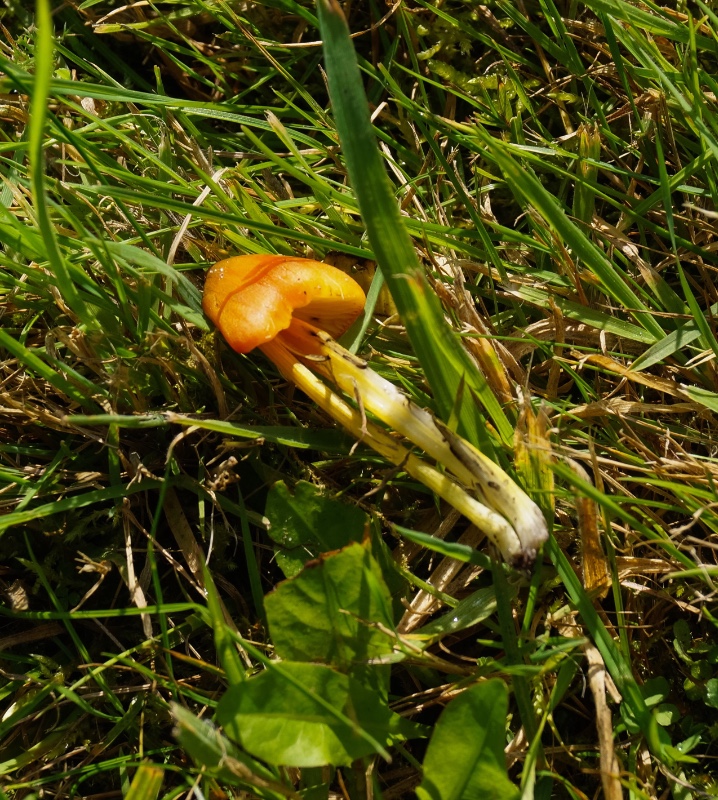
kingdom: Fungi
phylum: Basidiomycota
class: Agaricomycetes
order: Agaricales
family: Hygrophoraceae
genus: Hygrocybe
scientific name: Hygrocybe conica
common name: kegle-vokshat
